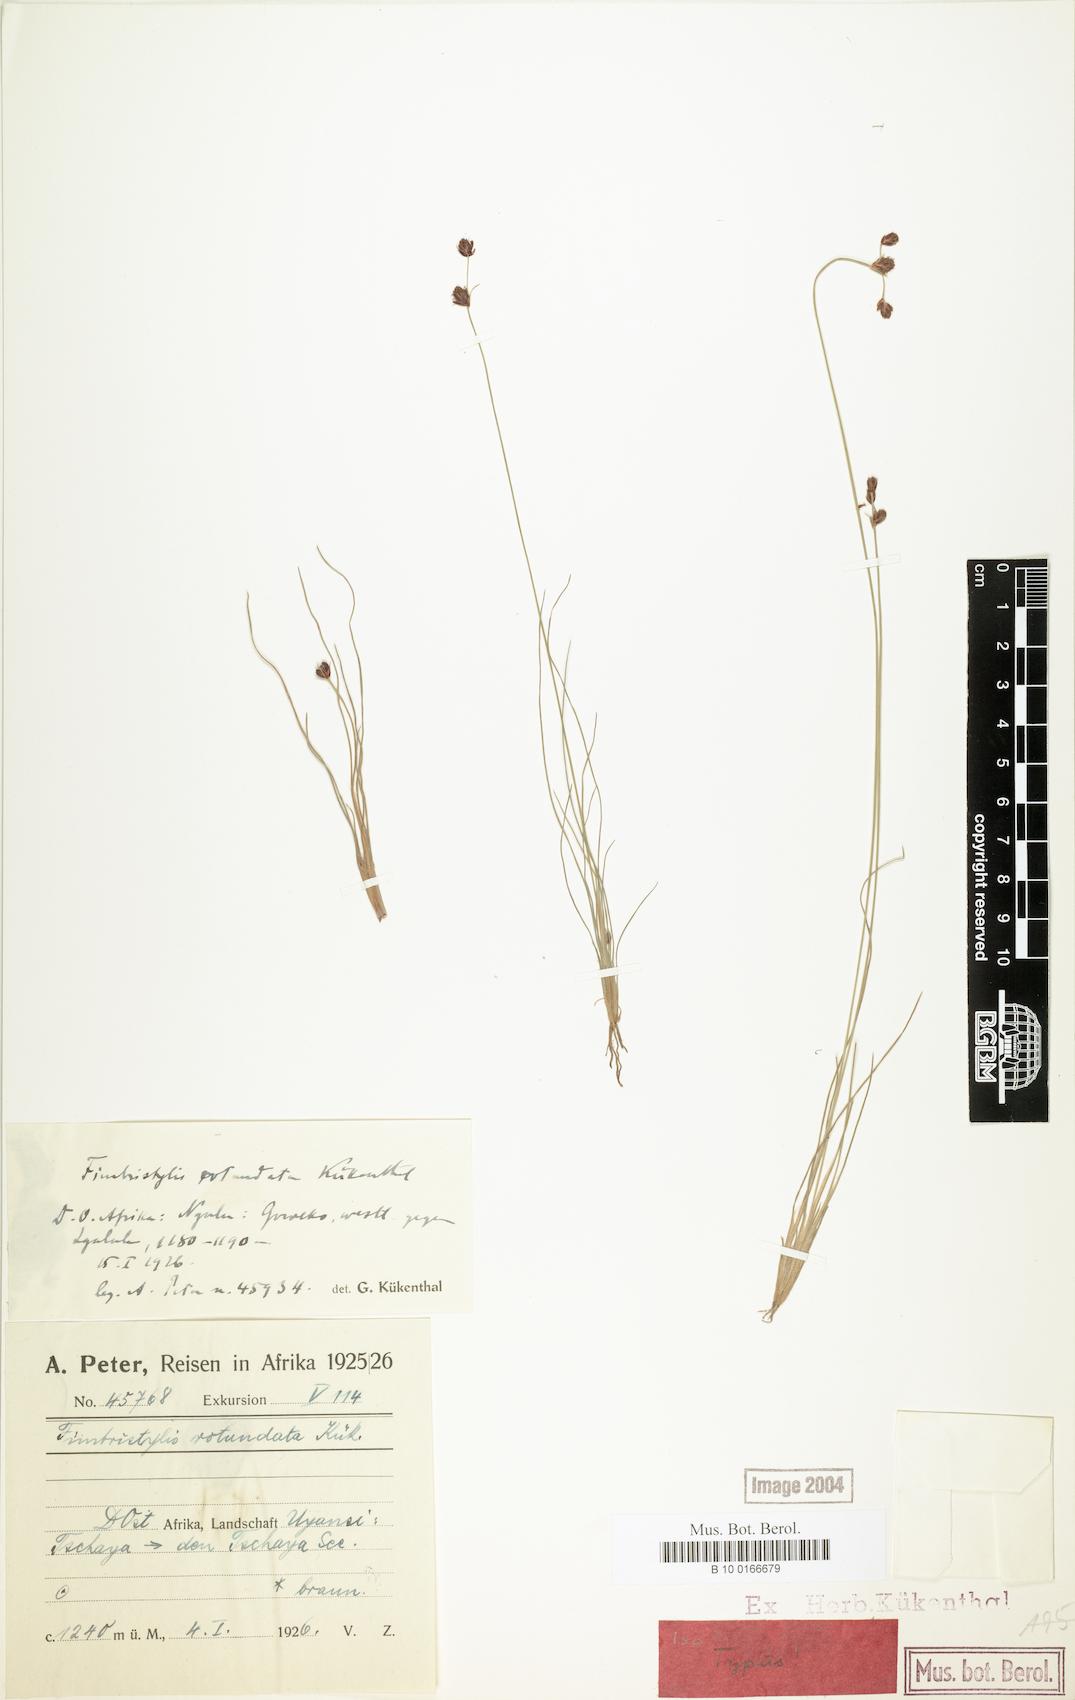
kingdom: Plantae
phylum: Tracheophyta
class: Liliopsida
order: Poales
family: Cyperaceae
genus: Bulbostylis
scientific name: Bulbostylis rotundata
